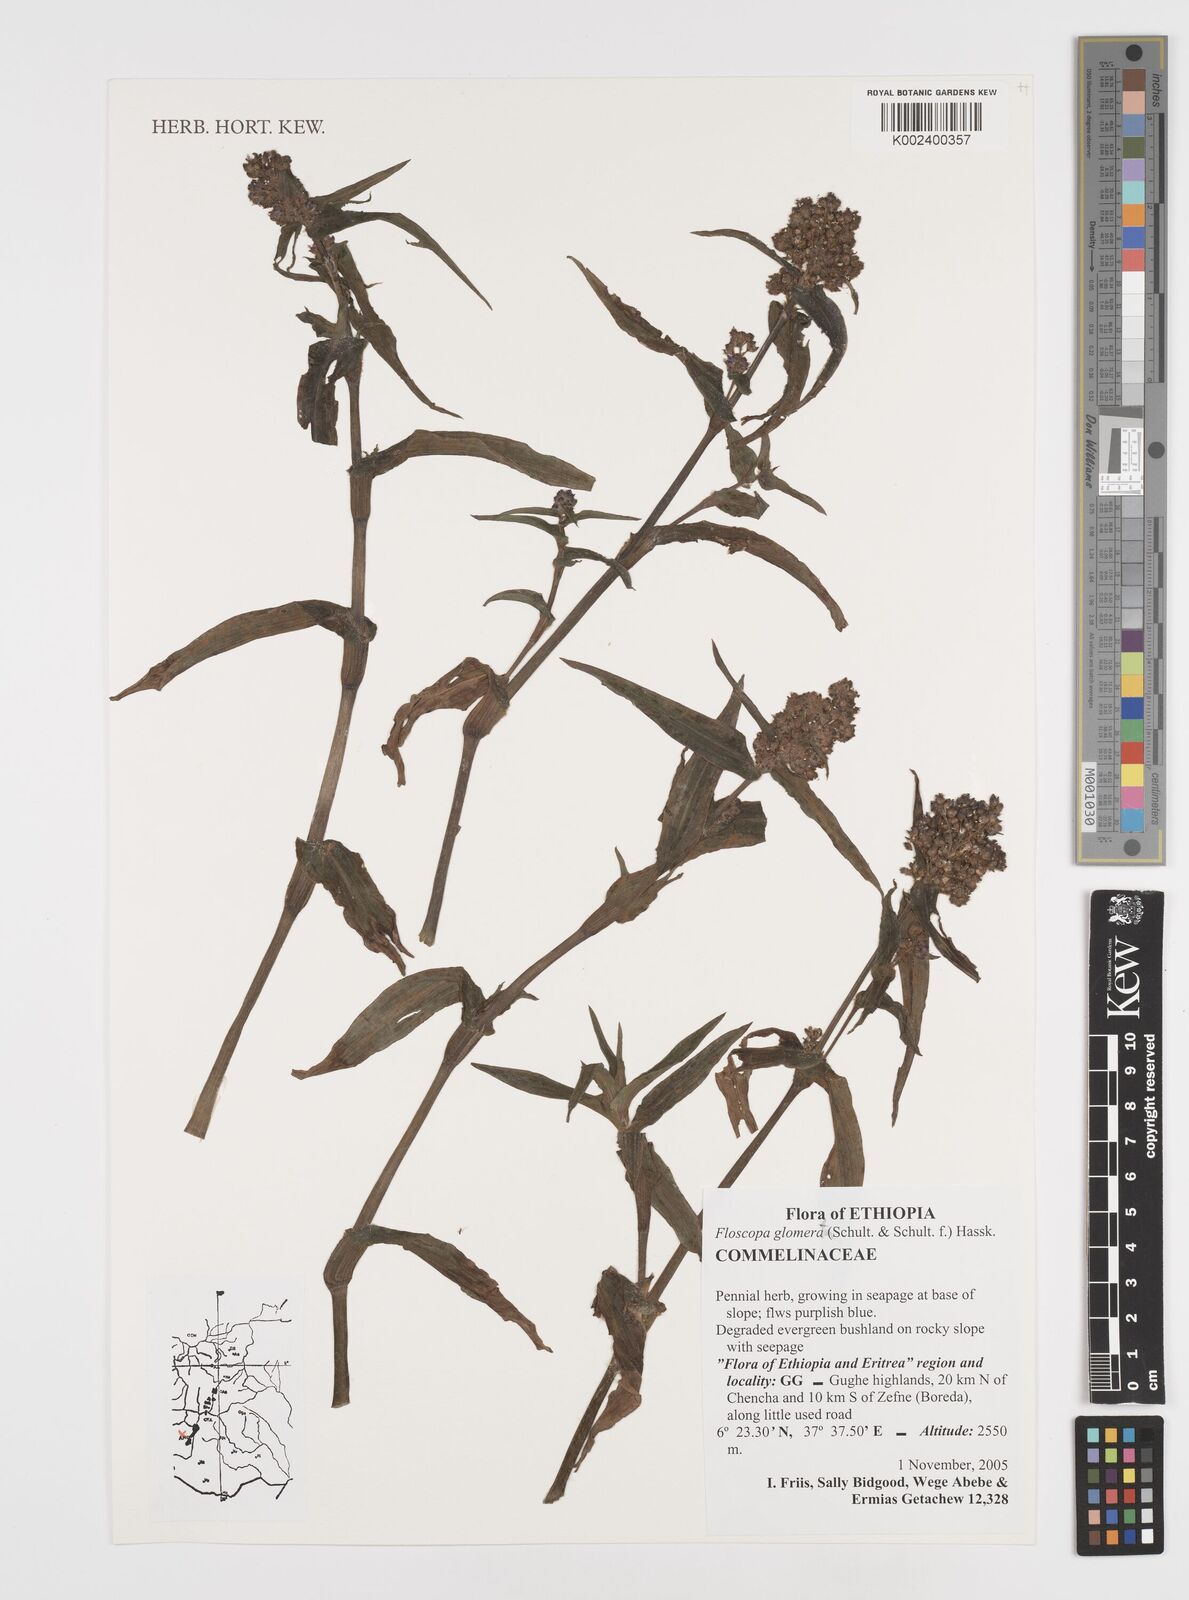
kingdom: Plantae
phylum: Tracheophyta
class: Liliopsida
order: Commelinales
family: Commelinaceae
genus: Floscopa
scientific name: Floscopa glomerata
